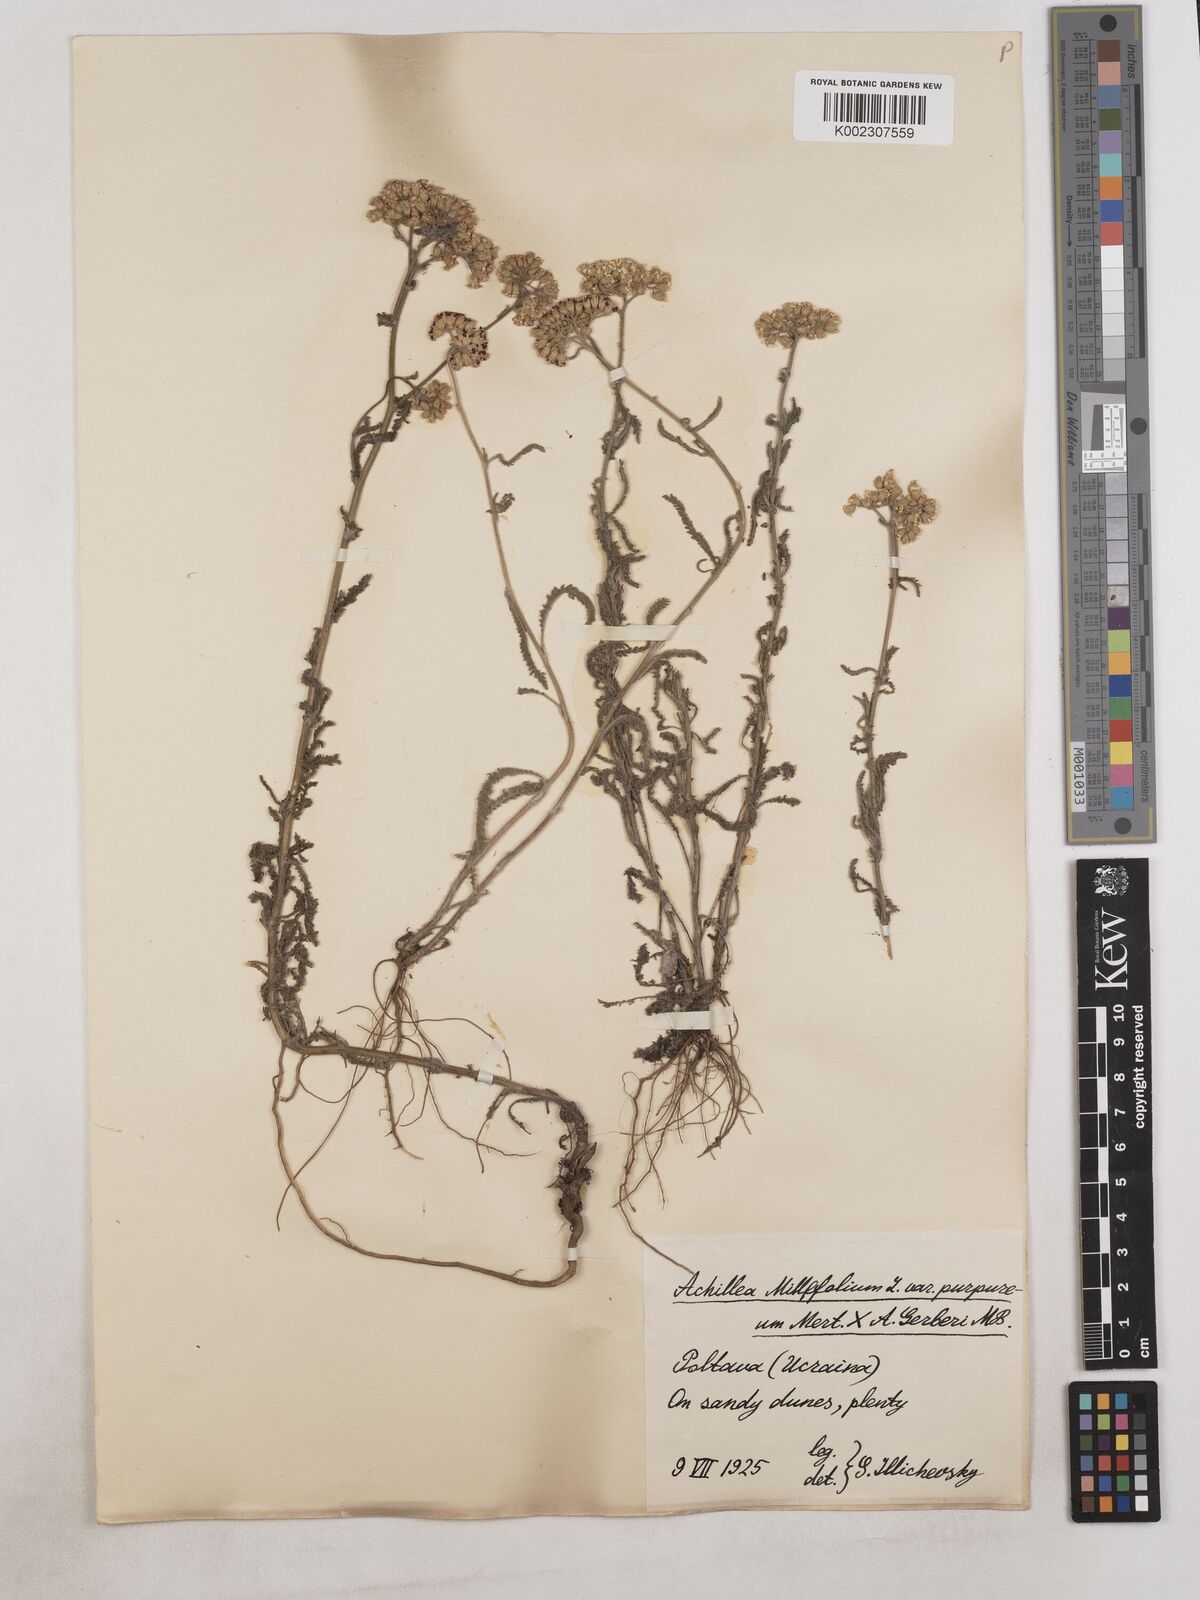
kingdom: Plantae
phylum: Tracheophyta
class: Magnoliopsida
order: Asterales
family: Asteraceae
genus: Achillea
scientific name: Achillea millefolium
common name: Yarrow
